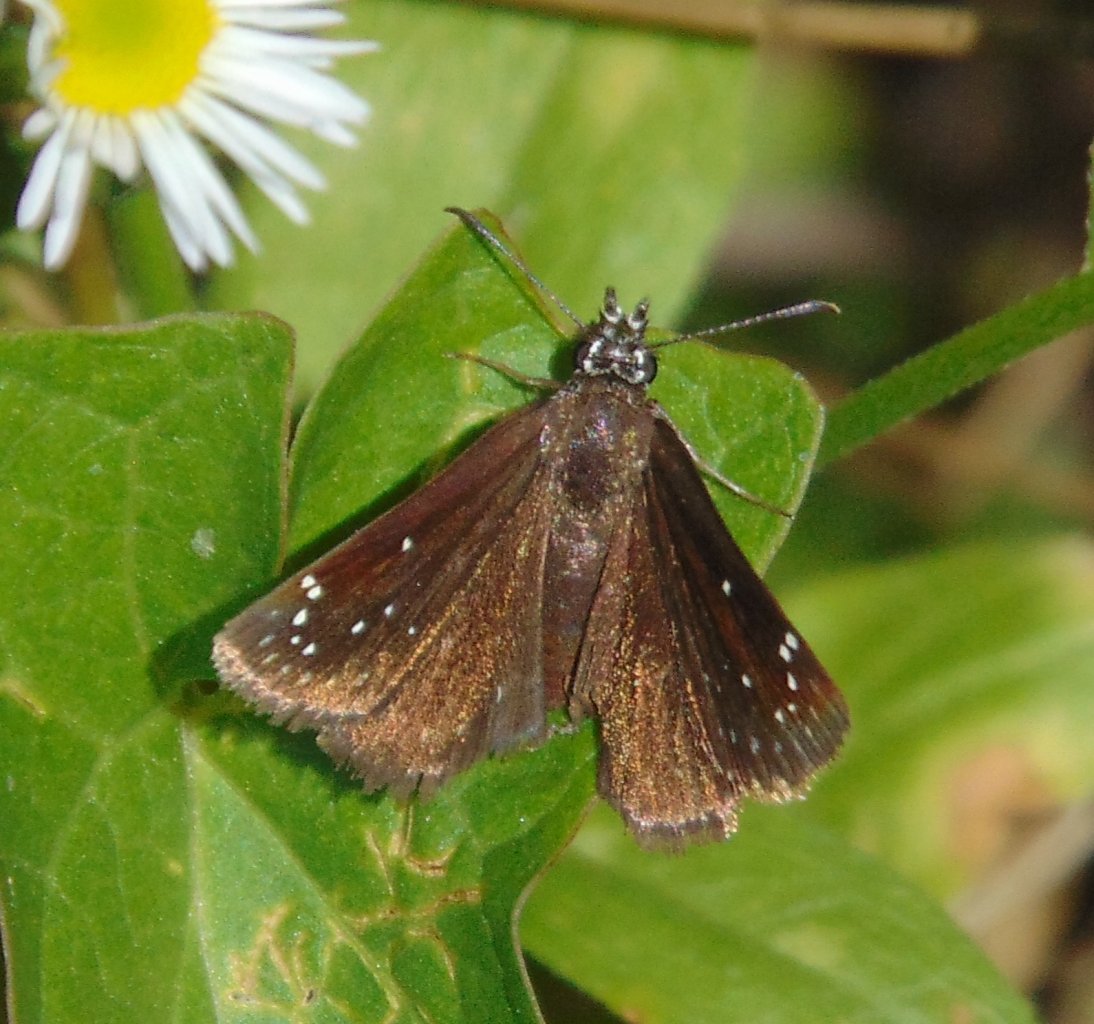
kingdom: Animalia
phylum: Arthropoda
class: Insecta
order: Lepidoptera
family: Hesperiidae
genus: Pholisora
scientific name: Pholisora catullus
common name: Common Sootywing
